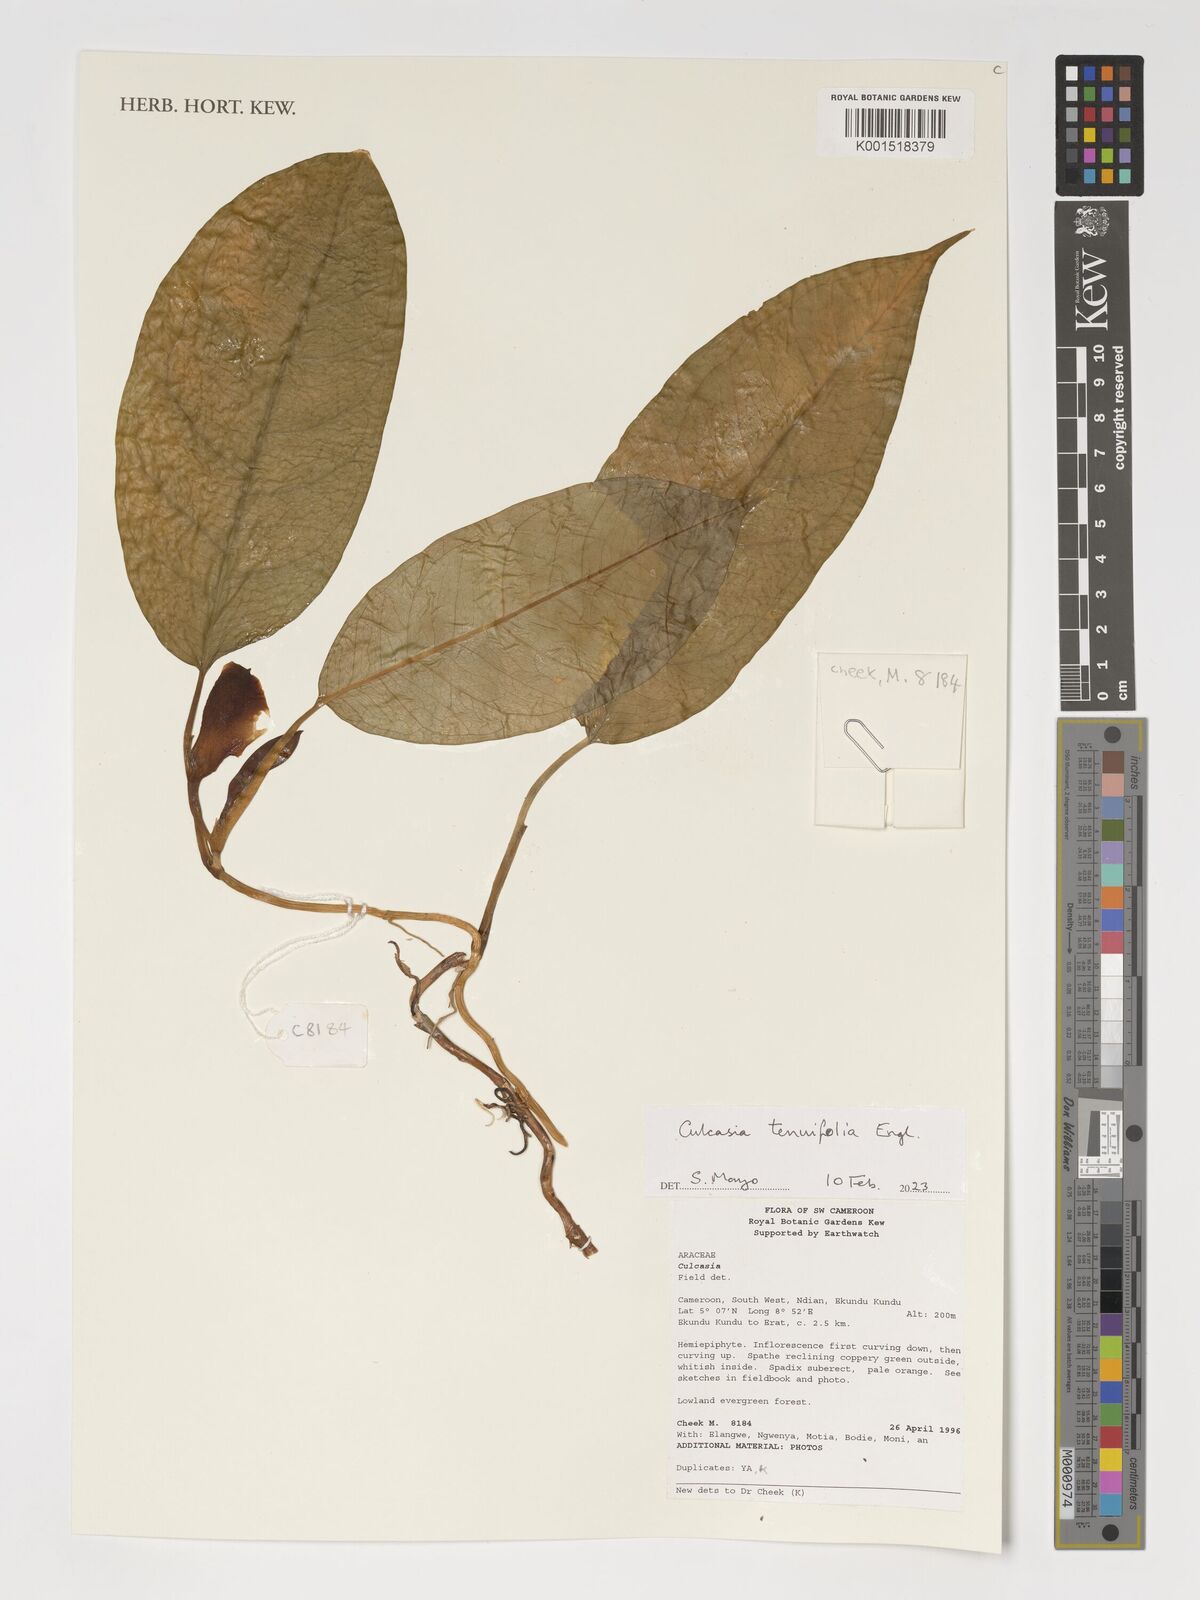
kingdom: Plantae
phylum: Tracheophyta
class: Liliopsida
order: Alismatales
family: Araceae
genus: Culcasia
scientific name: Culcasia tenuifolia
